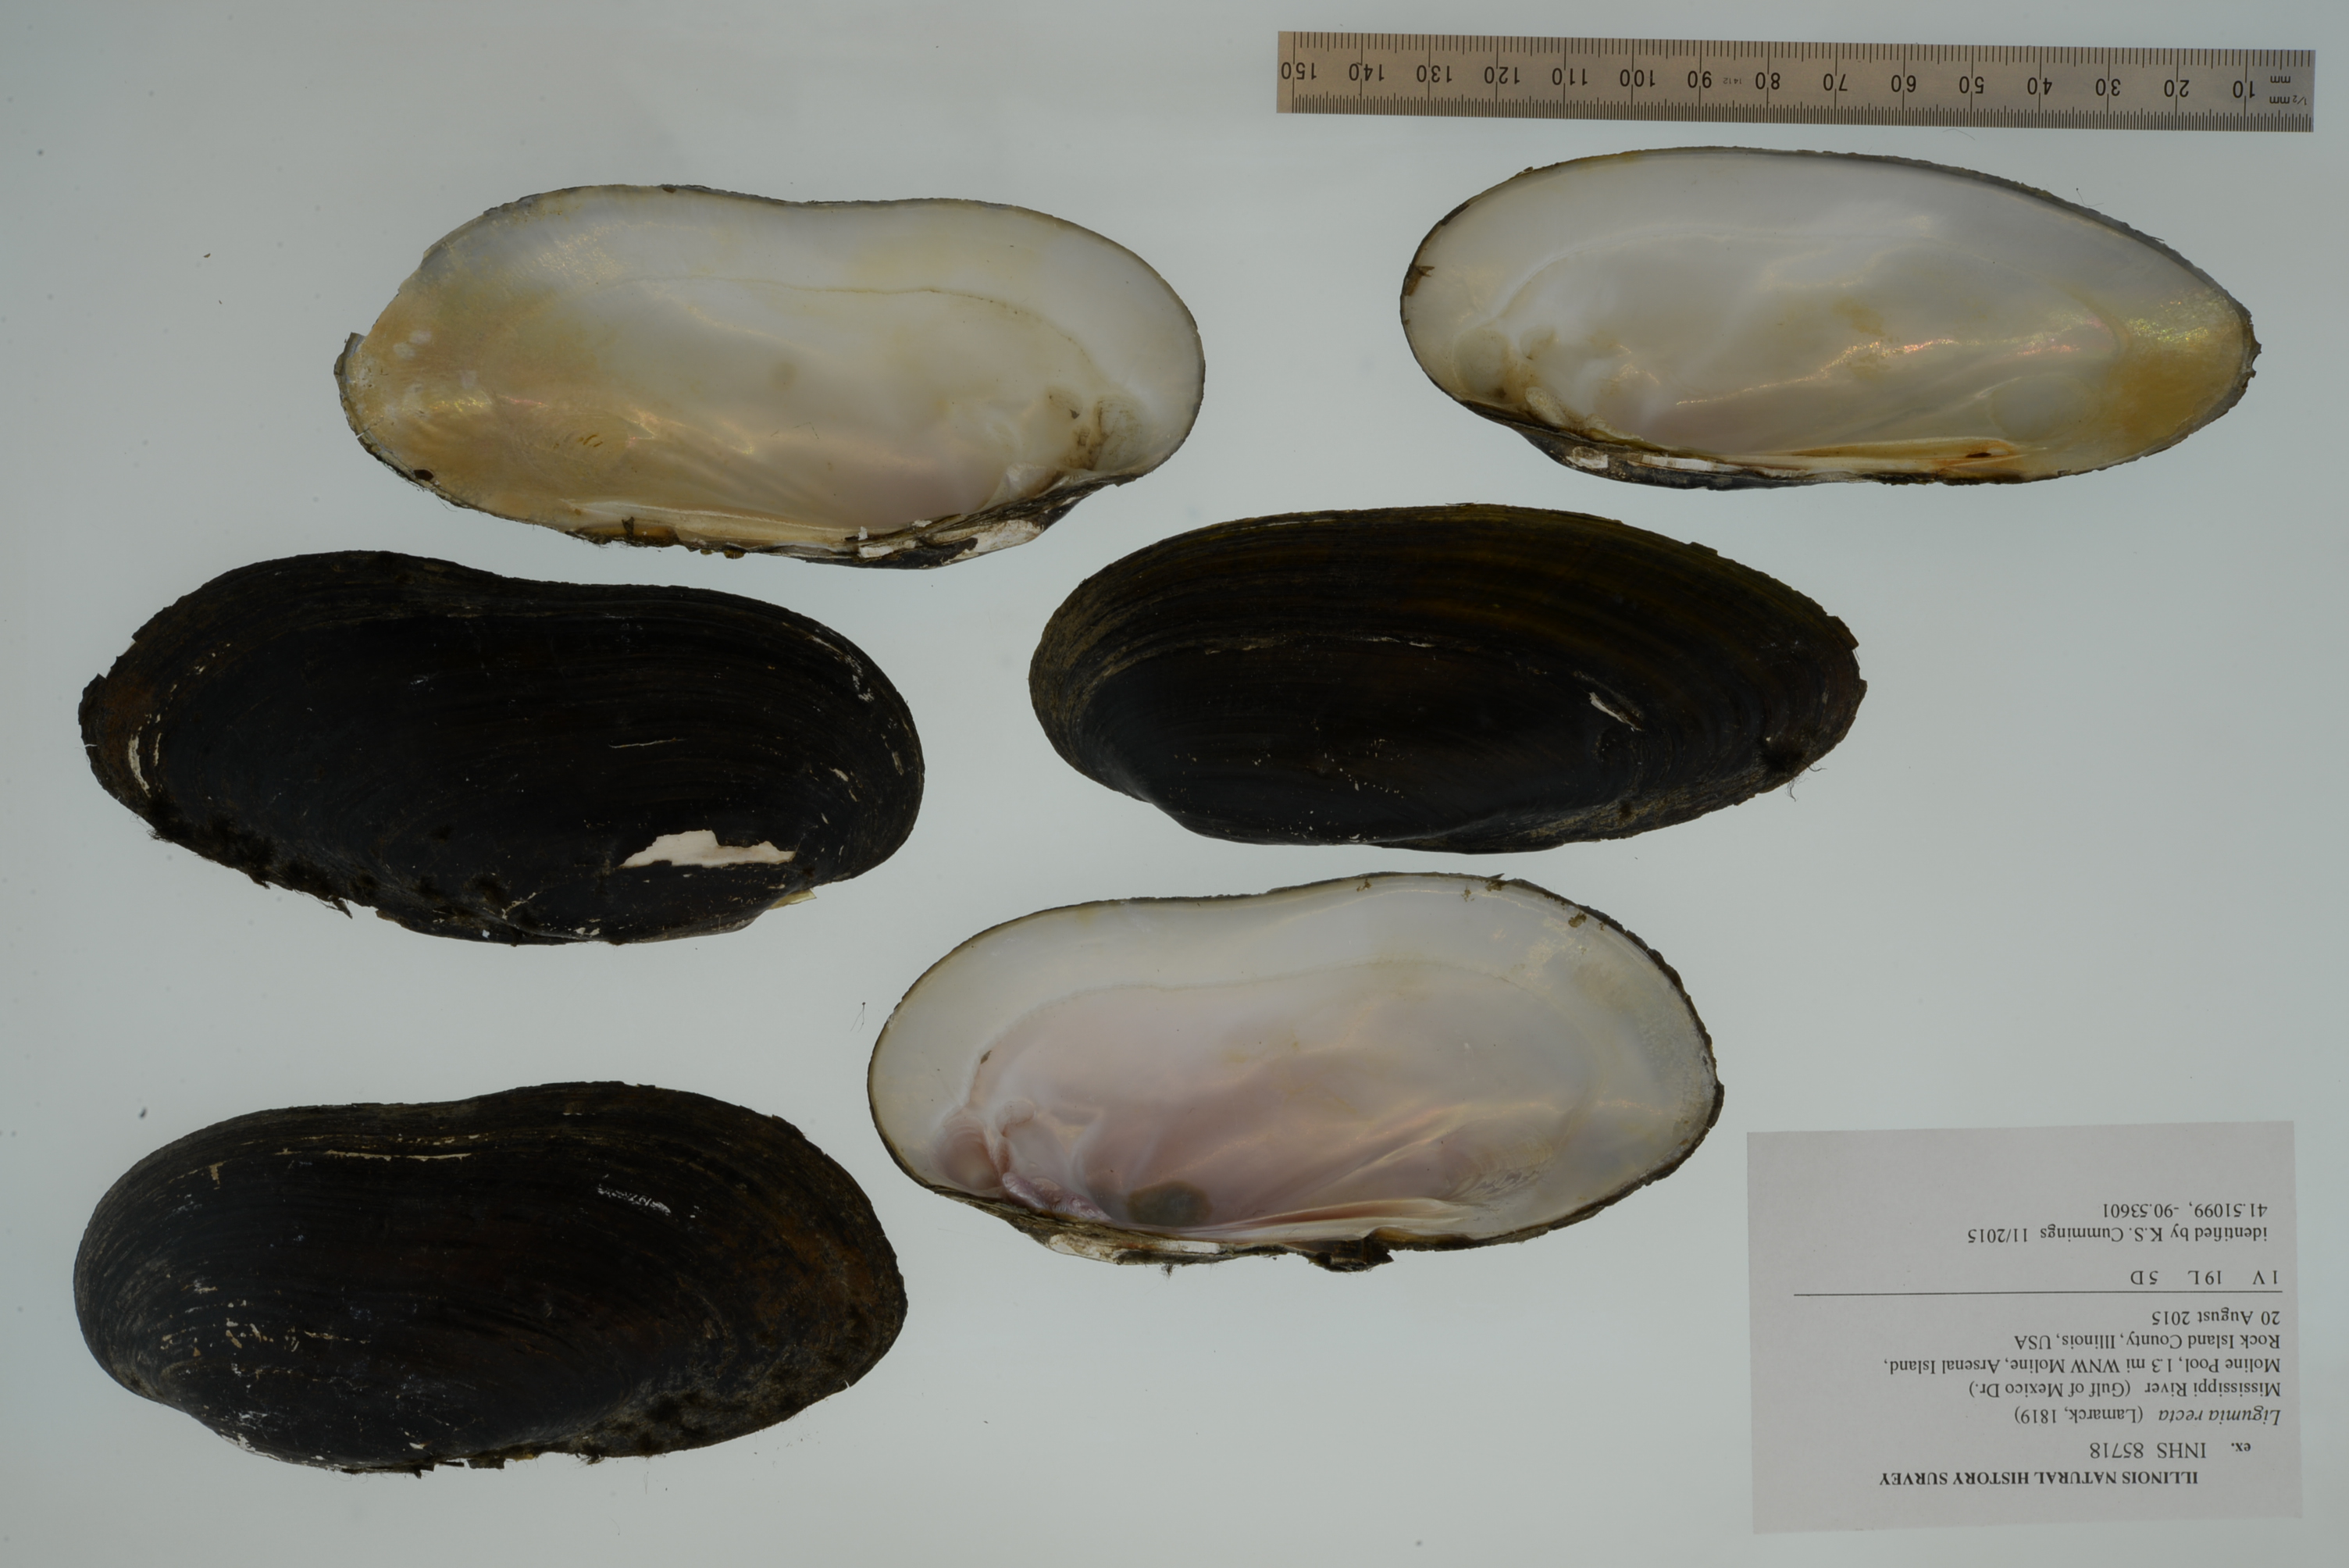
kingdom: Animalia
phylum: Mollusca
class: Bivalvia
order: Unionida
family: Unionidae
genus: Ligumia
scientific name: Ligumia recta
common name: Black sandshell
